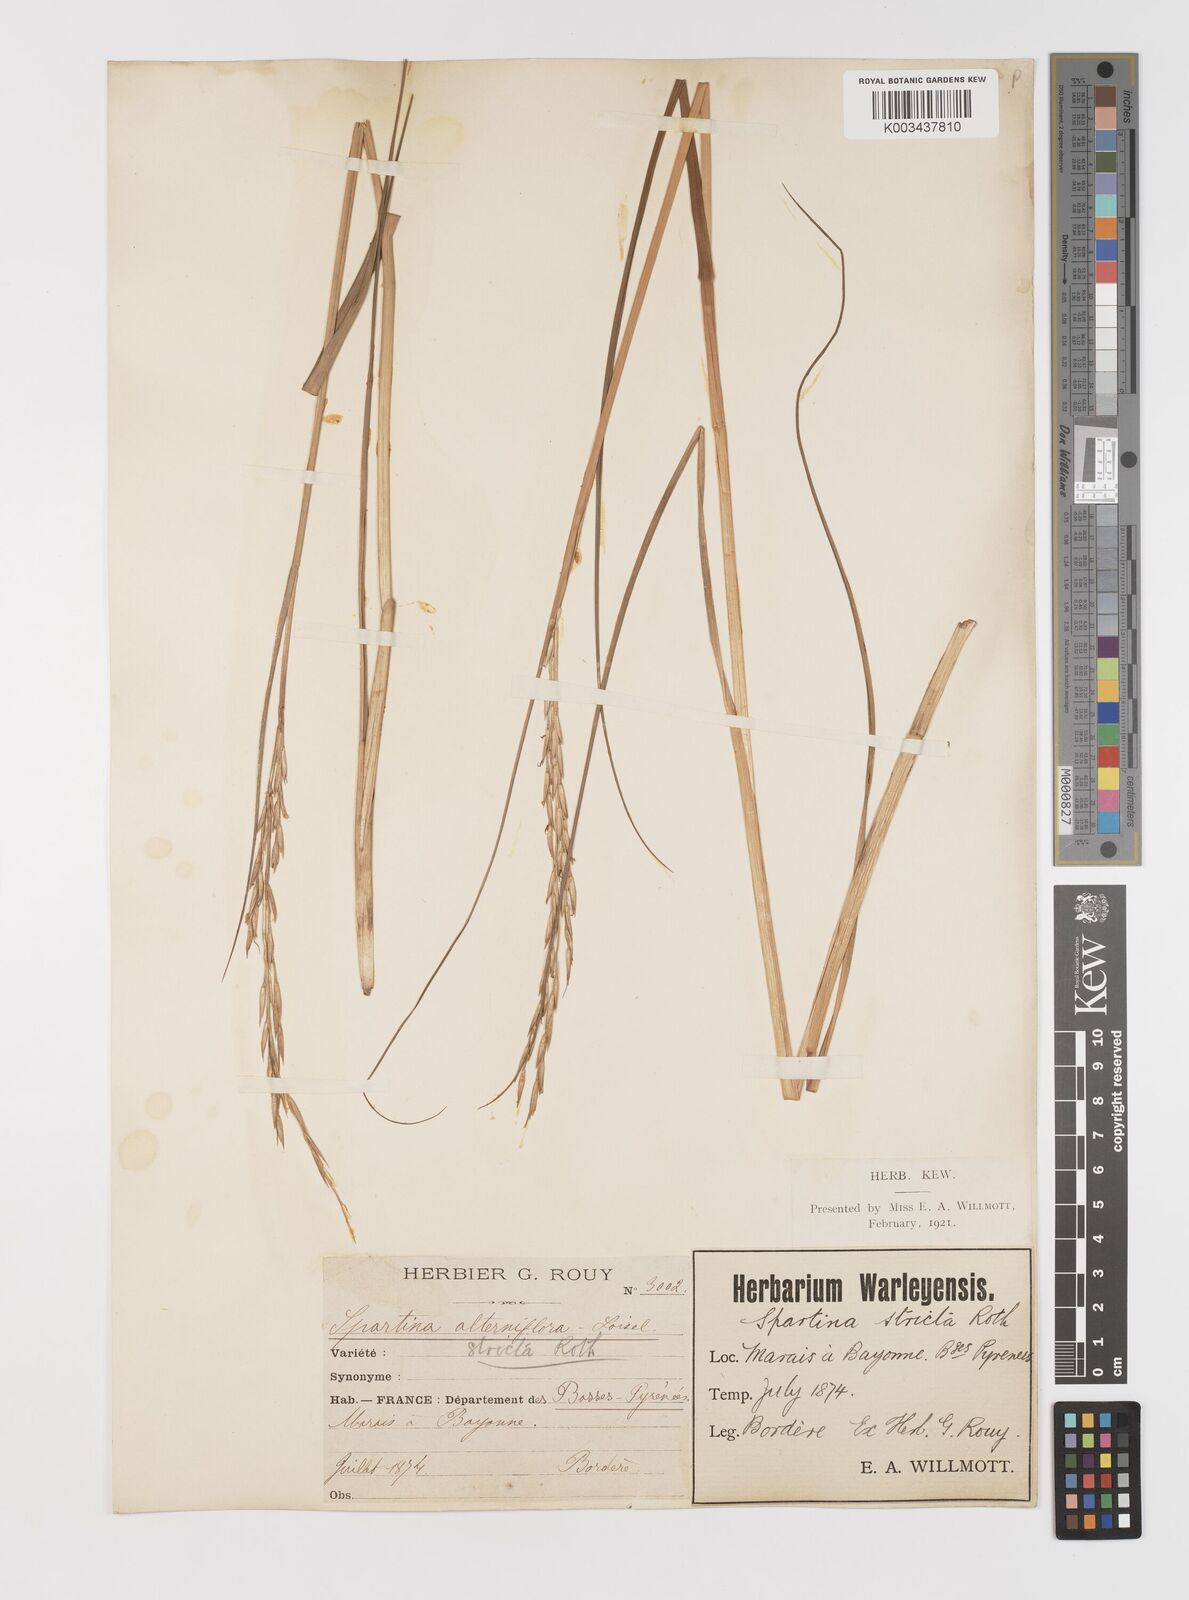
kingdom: Plantae
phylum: Tracheophyta
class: Liliopsida
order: Poales
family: Poaceae
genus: Sporobolus
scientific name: Sporobolus alterniflorus
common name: Atlantic cordgrass
